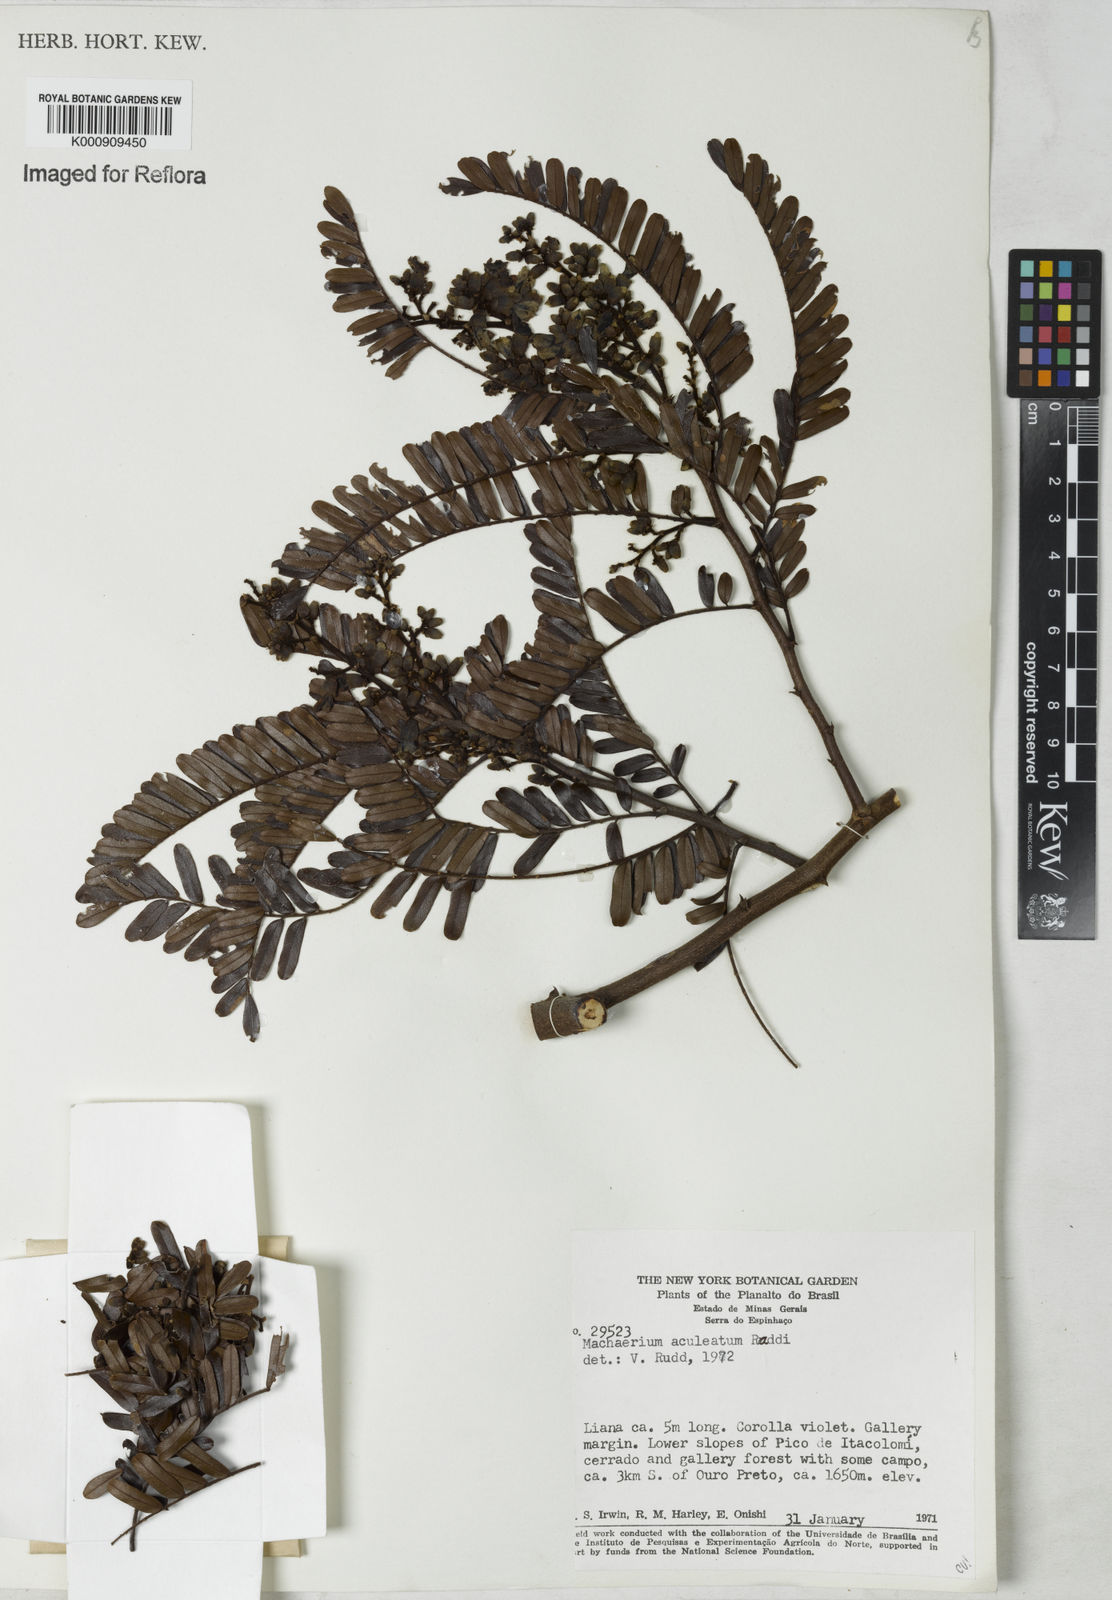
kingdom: Plantae
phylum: Tracheophyta
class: Magnoliopsida
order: Fabales
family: Fabaceae
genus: Machaerium
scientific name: Machaerium aculeatum
